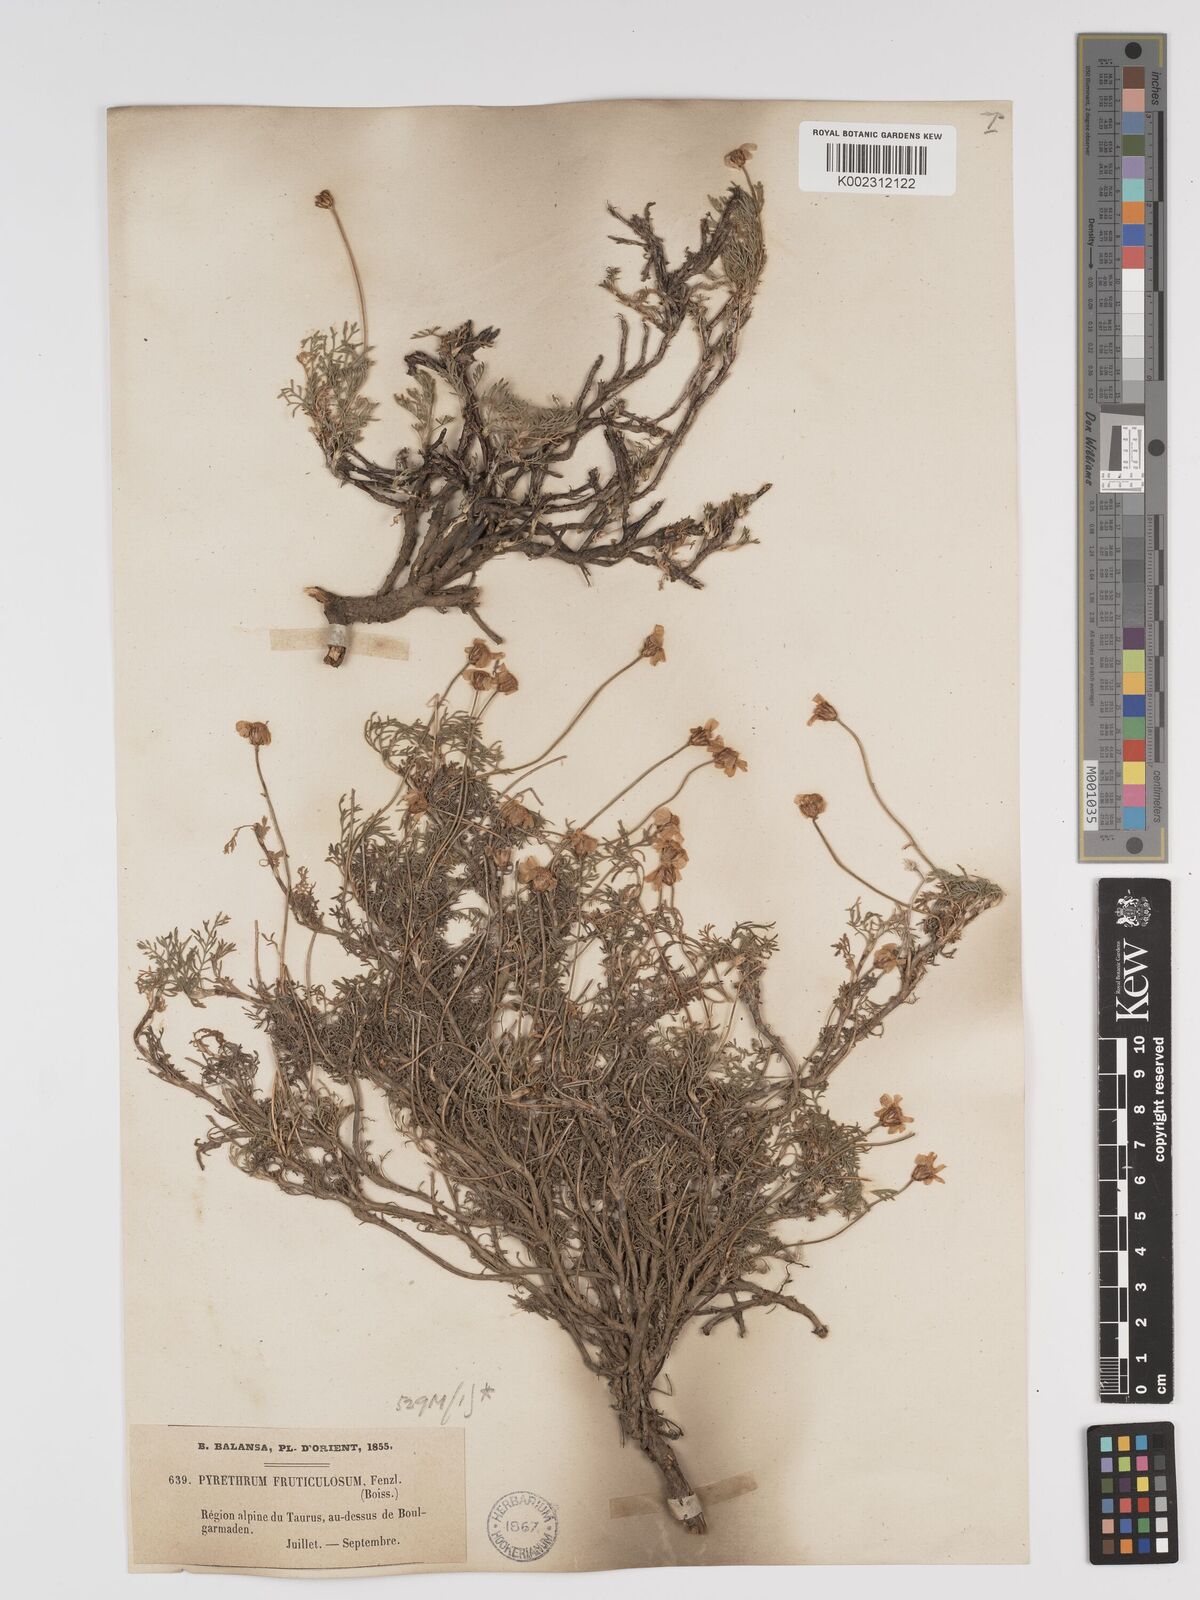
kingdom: Plantae
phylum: Tracheophyta
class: Magnoliopsida
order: Asterales
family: Asteraceae
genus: Ajania
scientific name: Ajania fruticulosa
